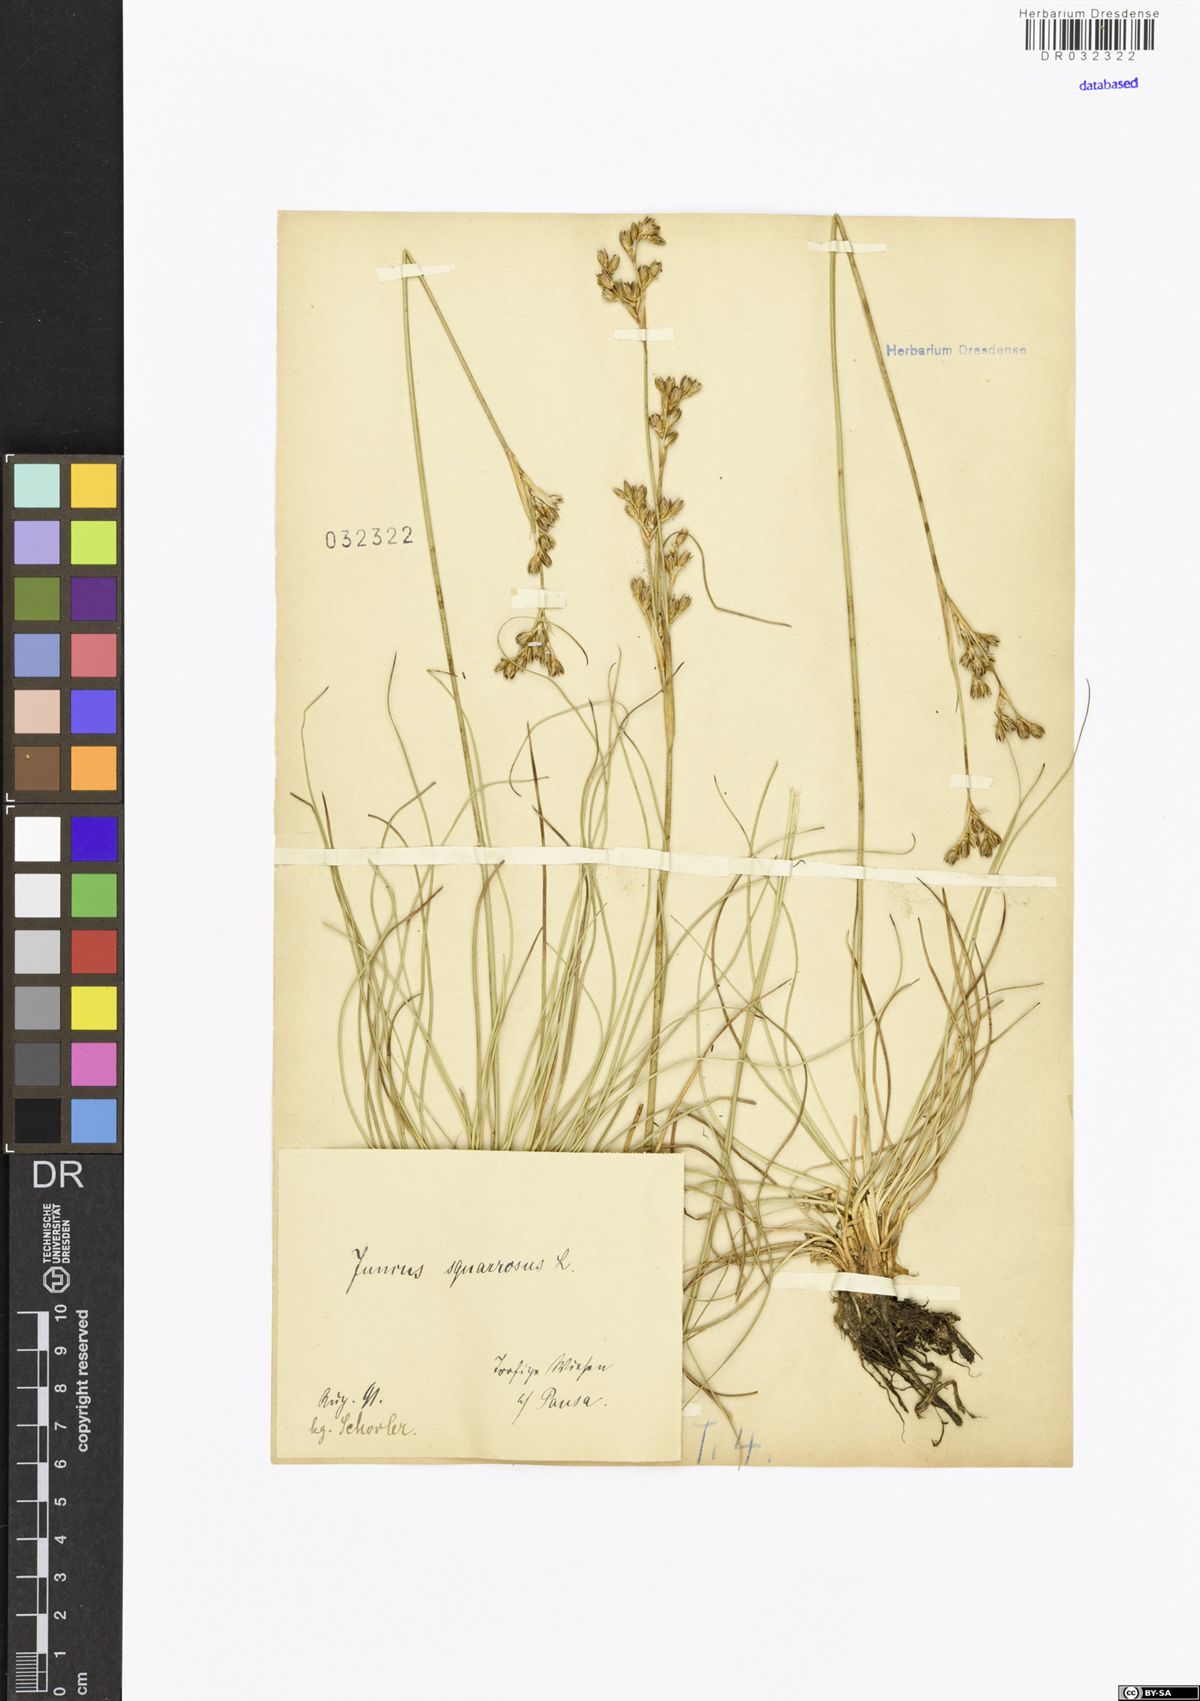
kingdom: Plantae
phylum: Tracheophyta
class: Liliopsida
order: Poales
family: Juncaceae
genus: Juncus
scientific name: Juncus squarrosus
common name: Heath rush
